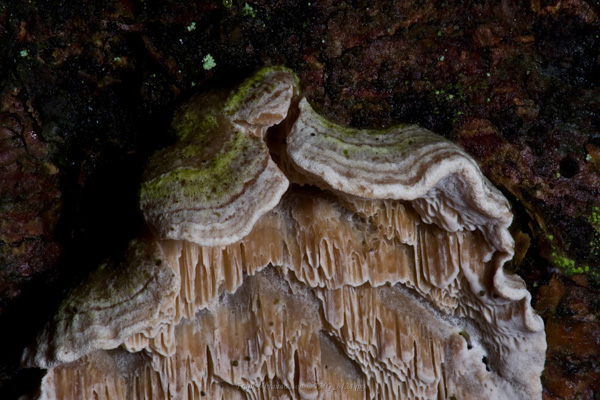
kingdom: Fungi
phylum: Basidiomycota
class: Agaricomycetes
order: Polyporales
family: Incrustoporiaceae
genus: Skeletocutis
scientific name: Skeletocutis carneogrisea
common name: rødgrå krystalporesvamp
